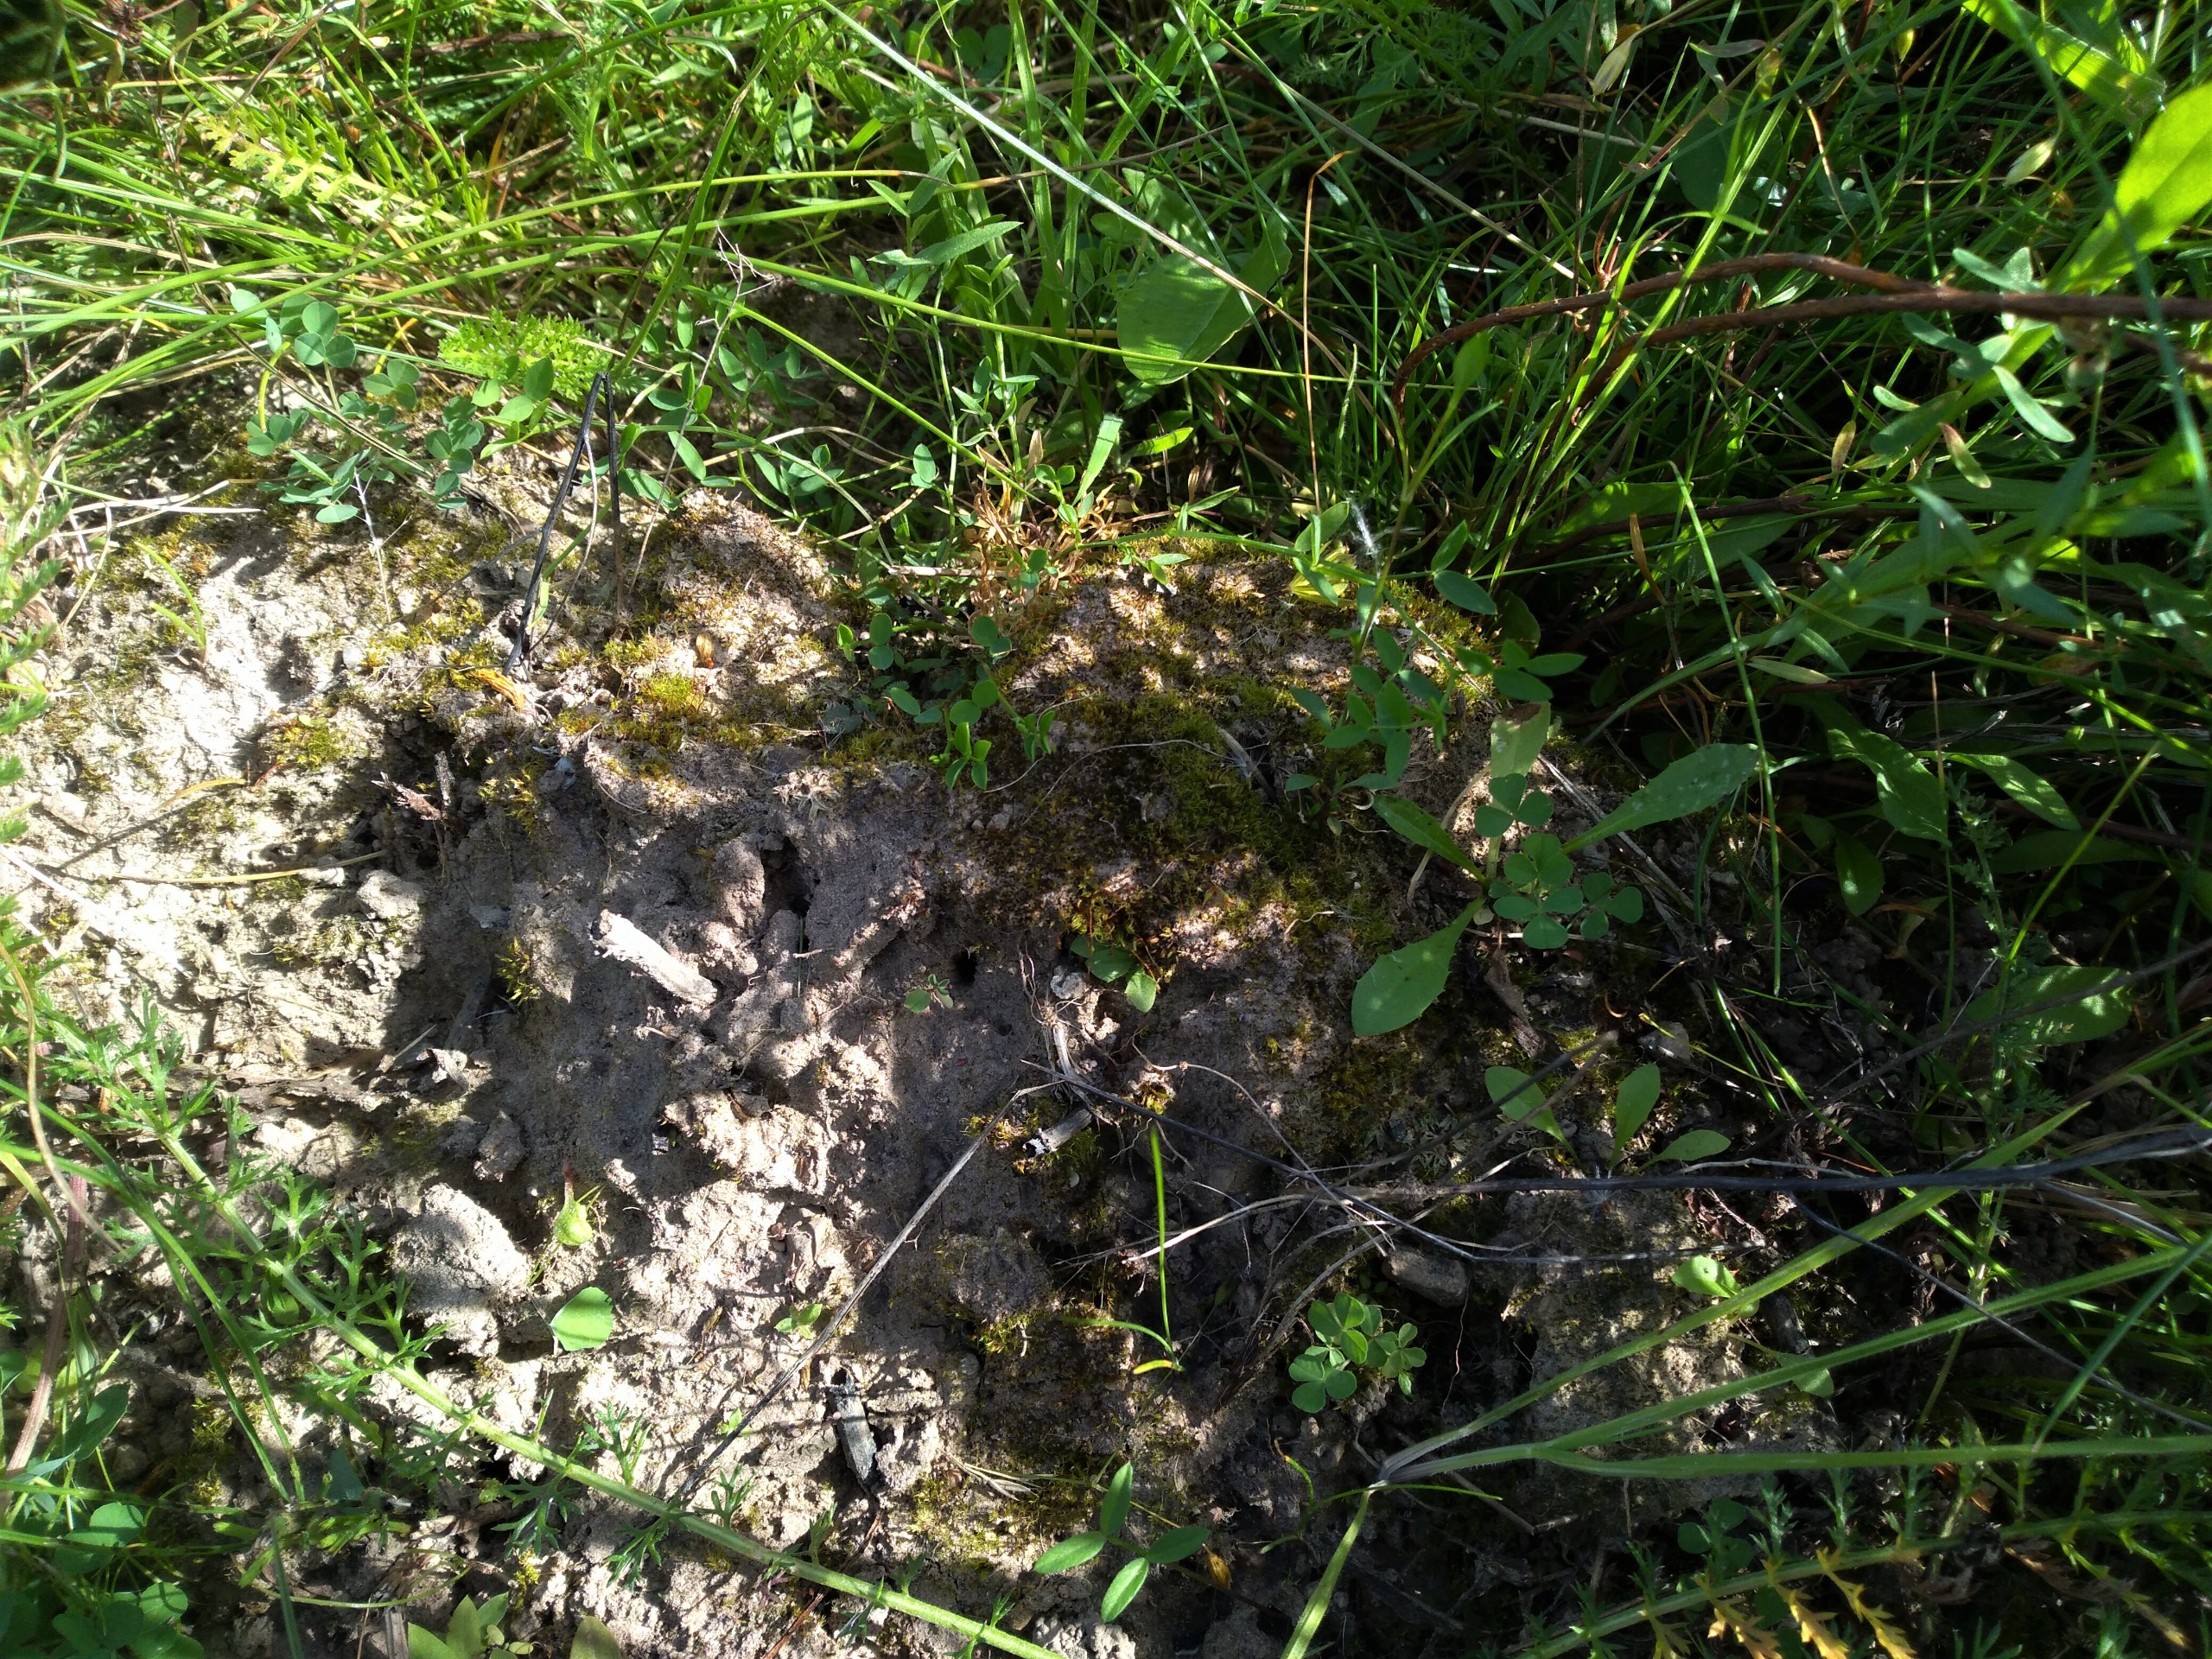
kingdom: Plantae
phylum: Bryophyta
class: Bryopsida
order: Pottiales
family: Pottiaceae
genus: Acaulon
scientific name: Acaulon muticum
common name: Siddende ægmos
